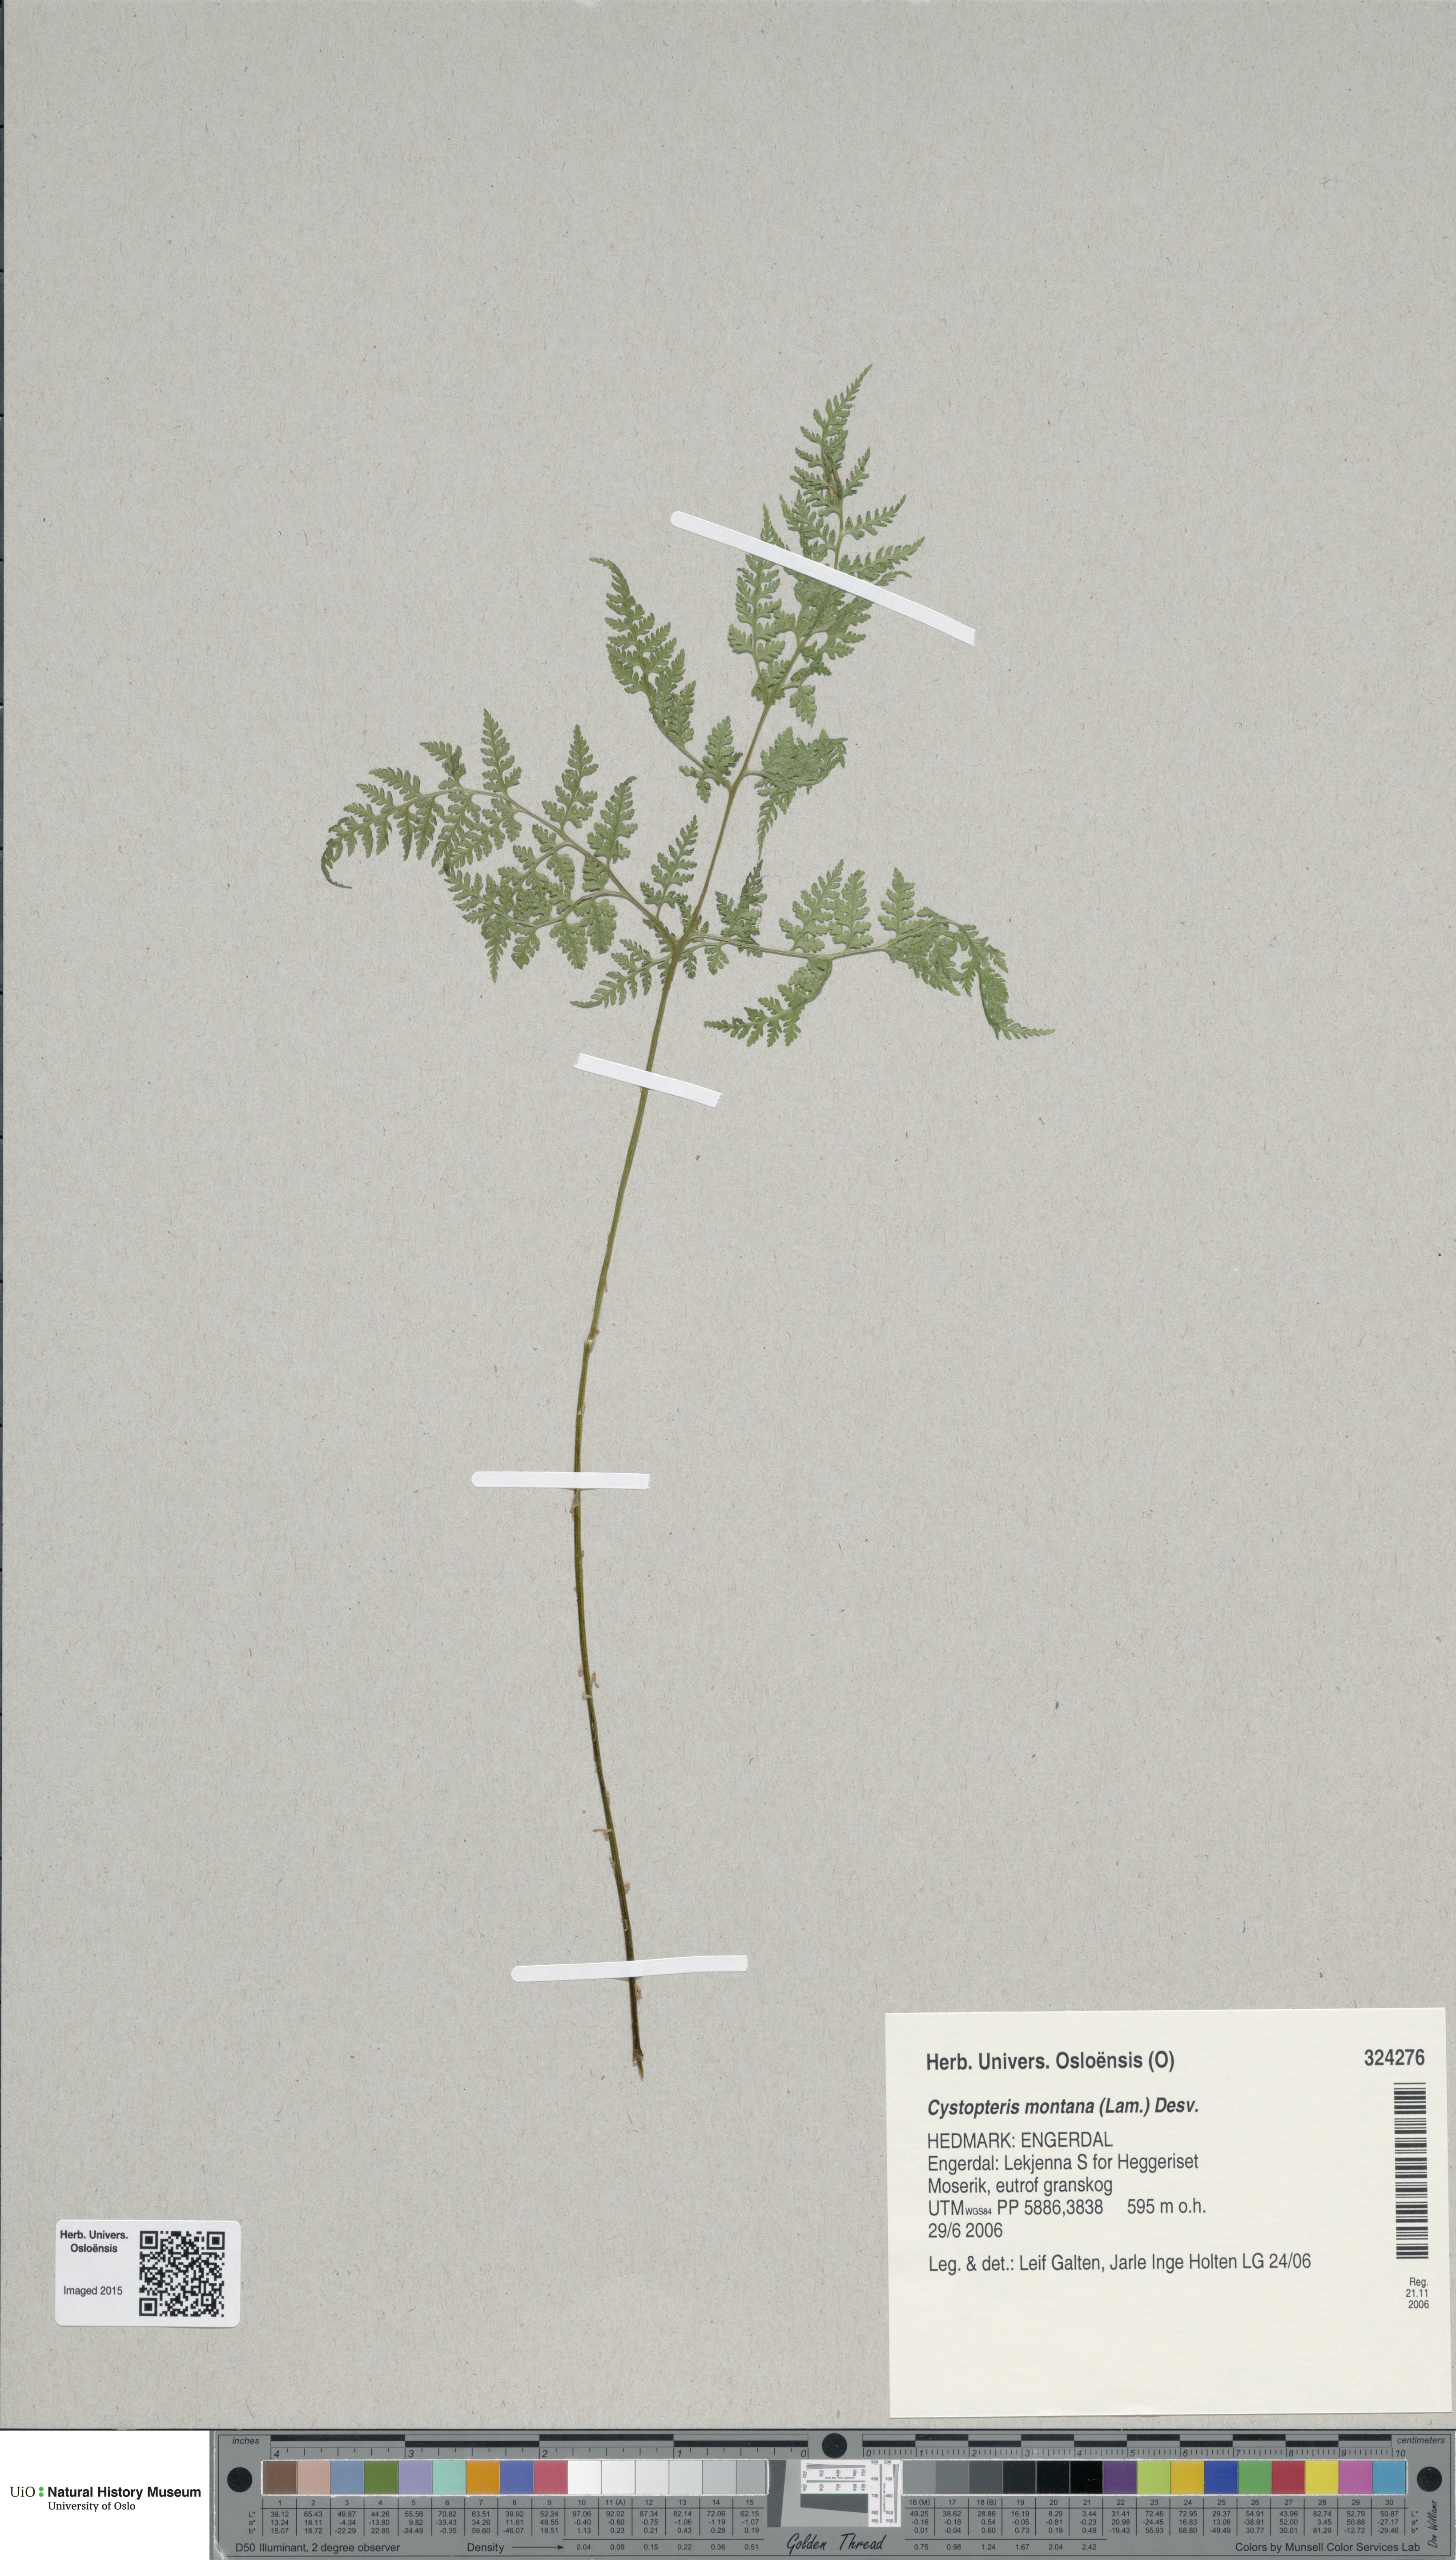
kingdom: Plantae
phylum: Tracheophyta
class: Polypodiopsida
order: Polypodiales
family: Cystopteridaceae
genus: Cystopteris
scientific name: Cystopteris montana
